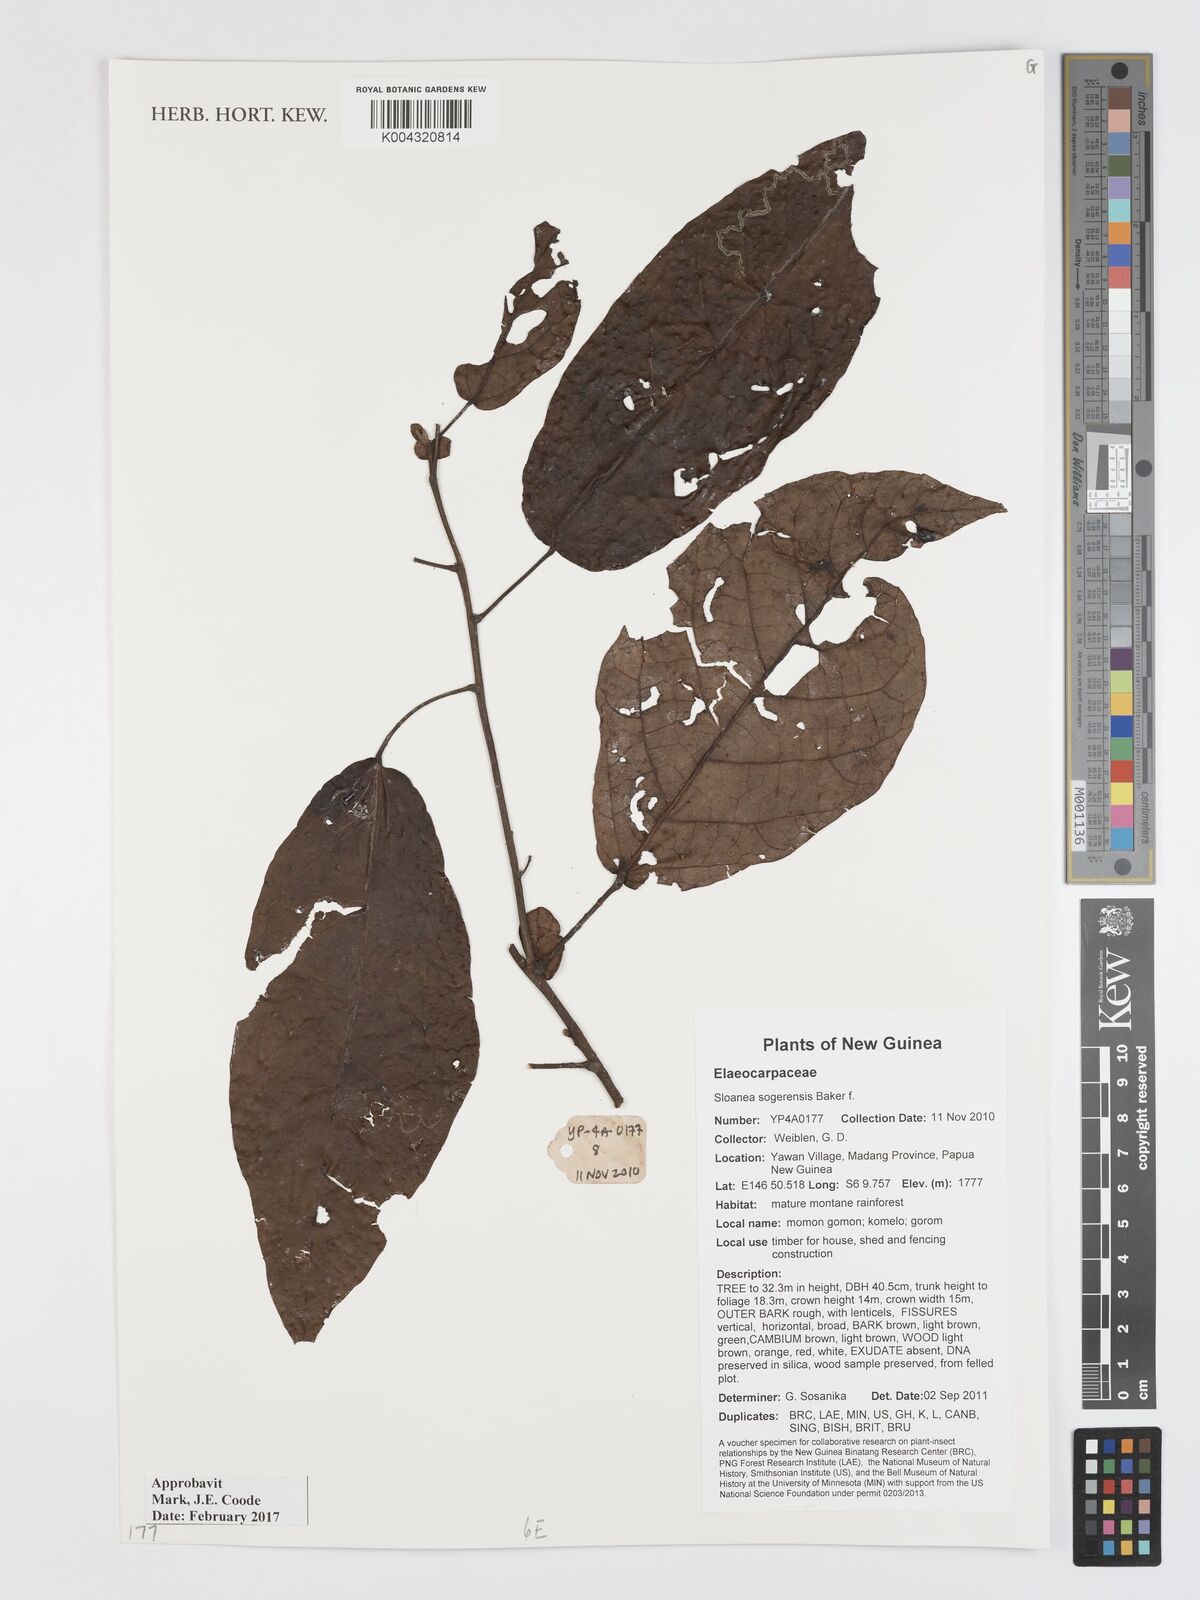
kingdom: Plantae
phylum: Tracheophyta
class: Magnoliopsida
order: Oxalidales
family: Elaeocarpaceae
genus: Sloanea
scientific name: Sloanea sogerensis
